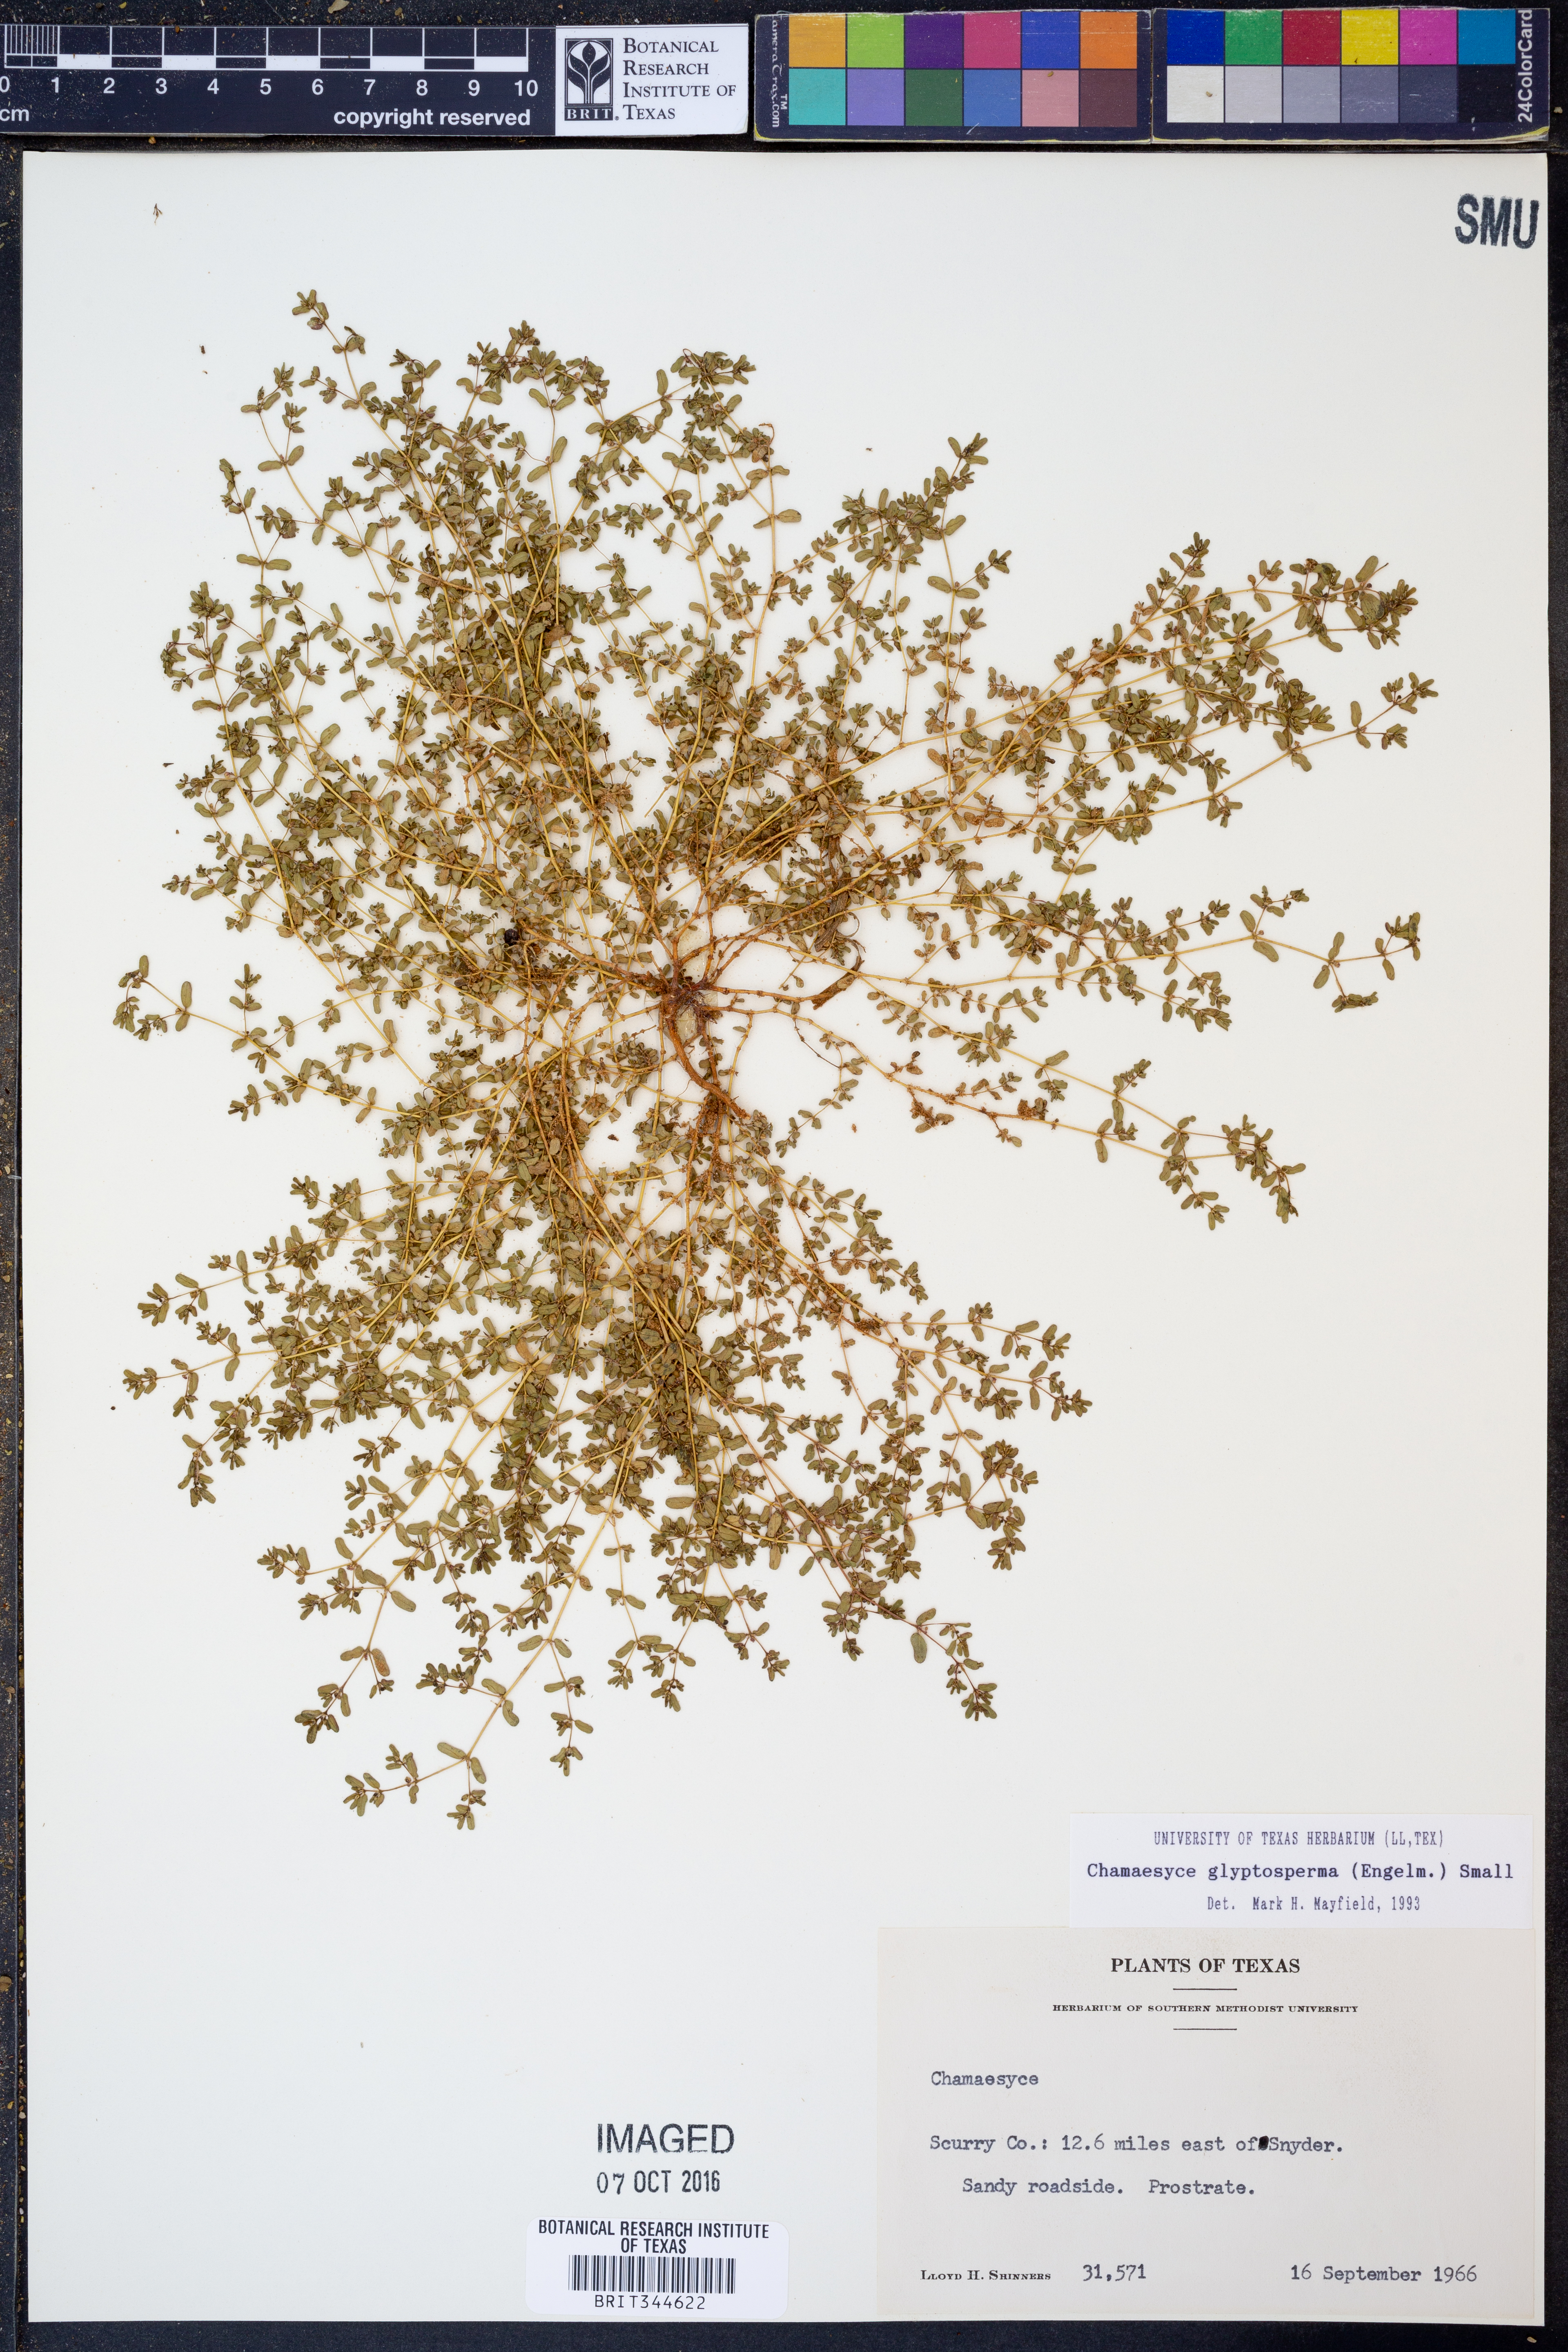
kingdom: Plantae
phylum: Tracheophyta
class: Magnoliopsida
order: Malpighiales
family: Euphorbiaceae
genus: Euphorbia
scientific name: Euphorbia glyptosperma
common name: Corrugate-seeded spurge
